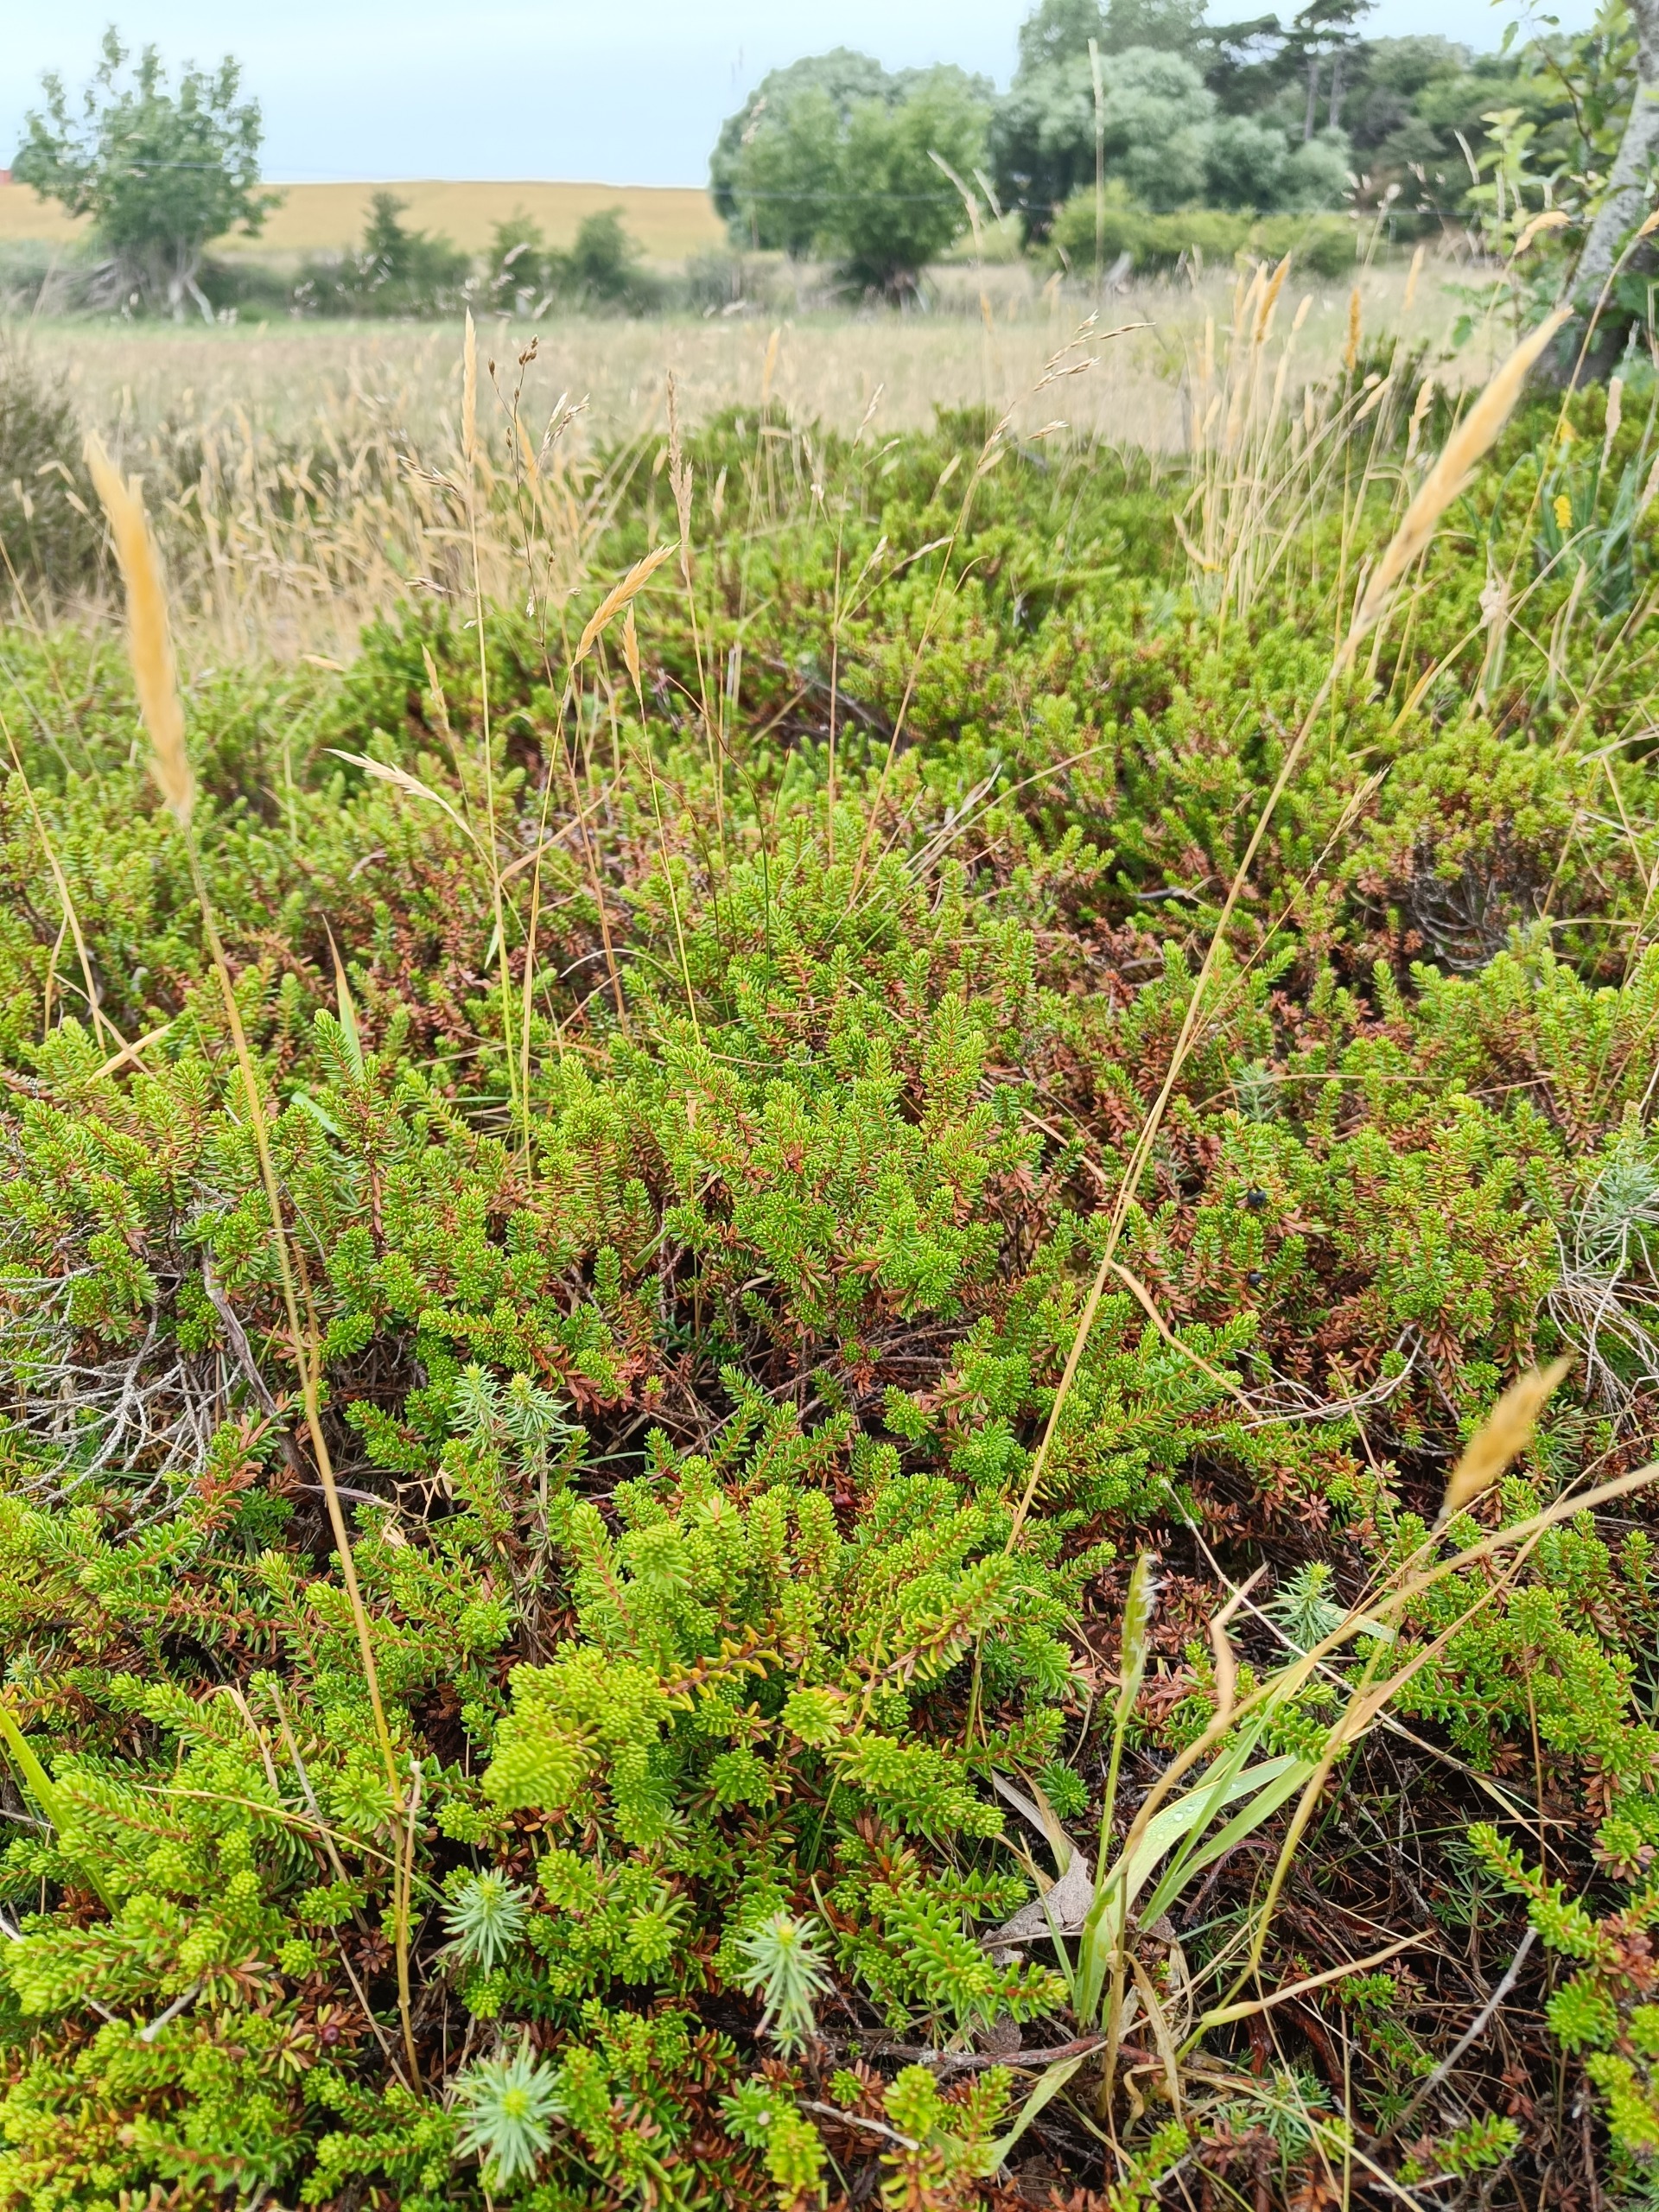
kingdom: Plantae
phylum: Tracheophyta
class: Magnoliopsida
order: Ericales
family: Ericaceae
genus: Empetrum
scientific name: Empetrum nigrum
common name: Revling
